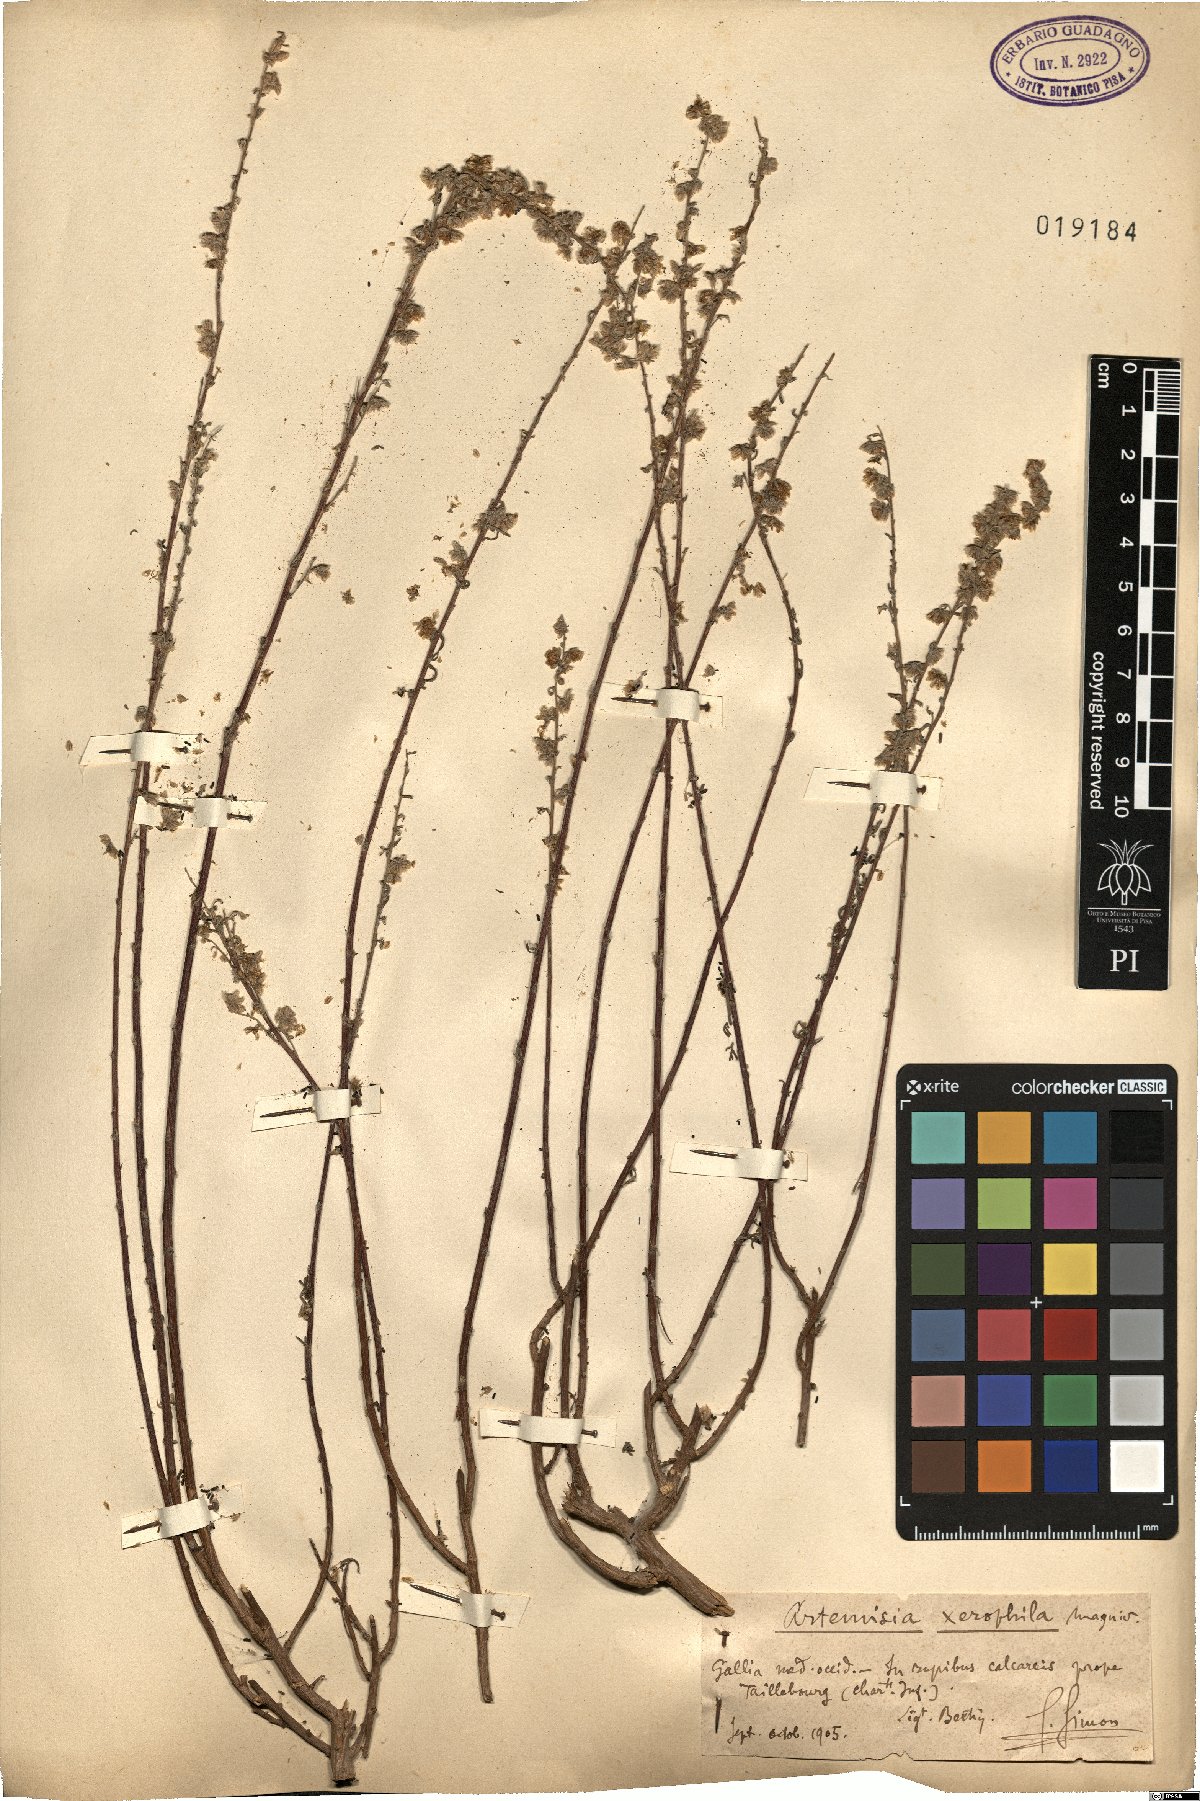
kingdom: Plantae
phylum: Tracheophyta
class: Magnoliopsida
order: Asterales
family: Asteraceae
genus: Artemisia
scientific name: Artemisia xerophila
